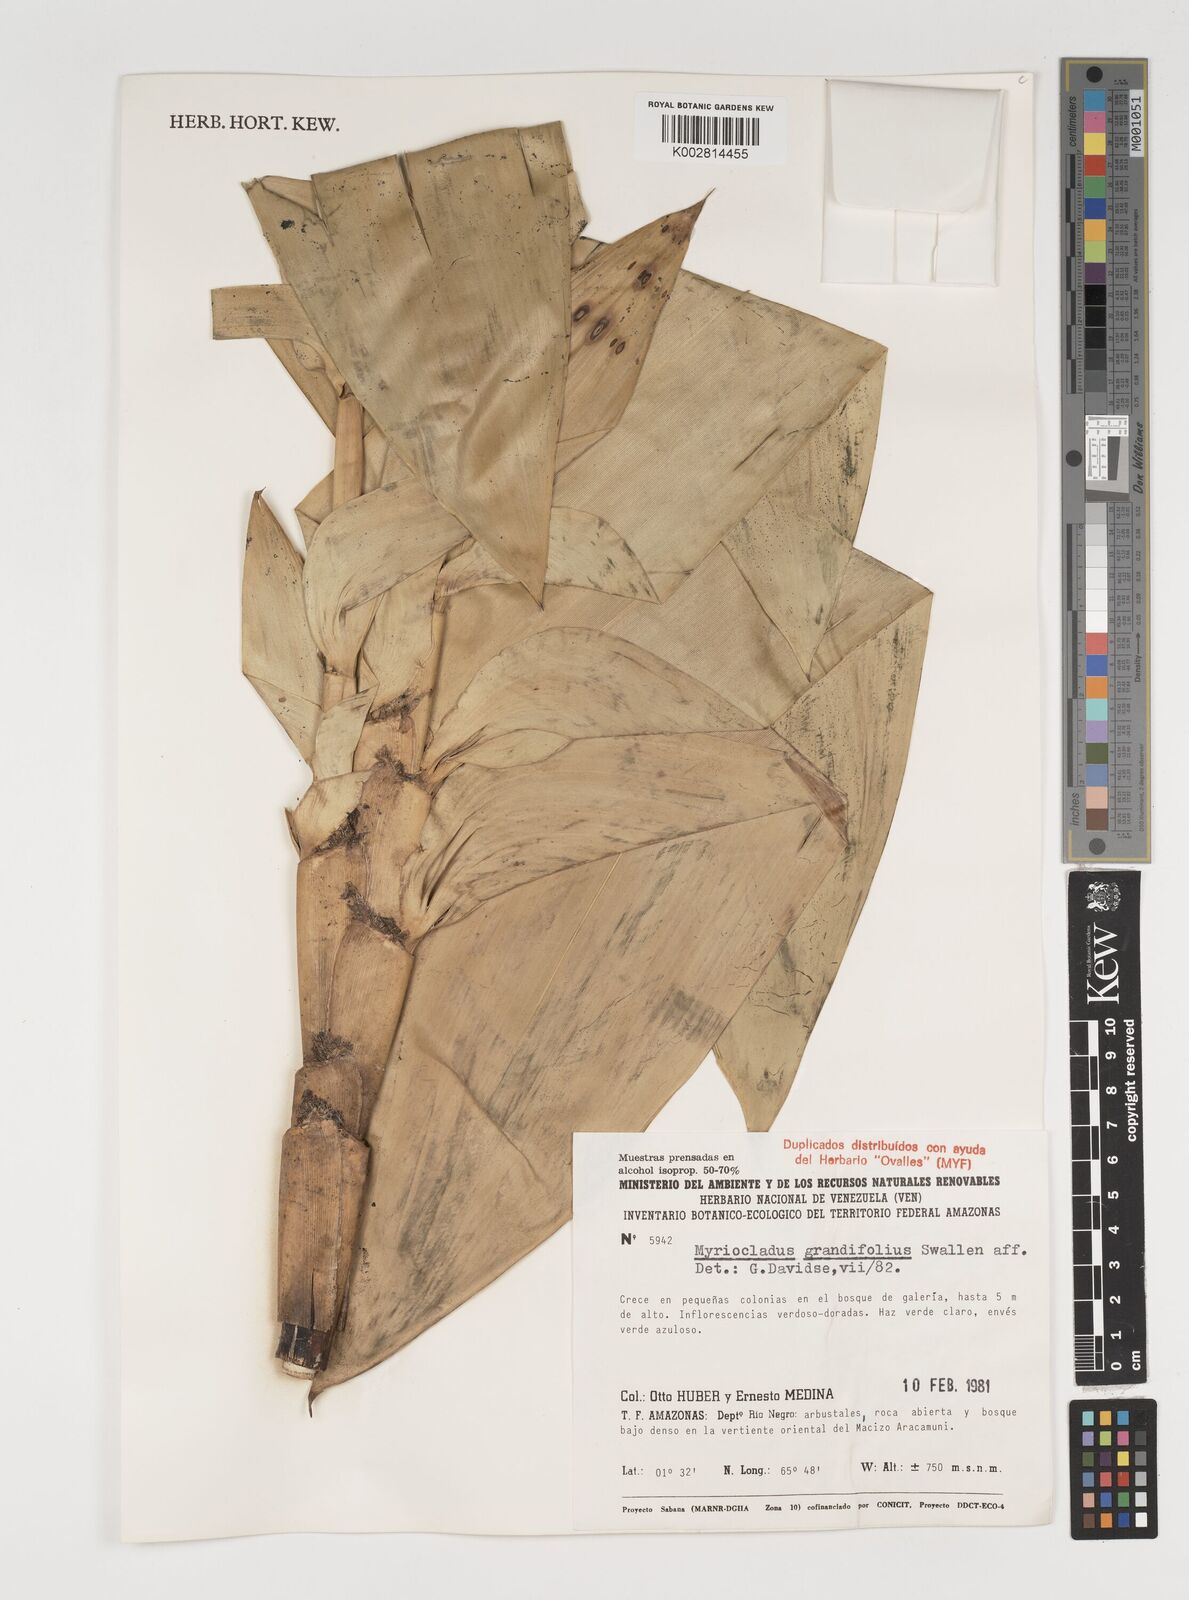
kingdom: Plantae
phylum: Tracheophyta
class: Liliopsida
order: Poales
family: Poaceae
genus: Myriocladus
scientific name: Myriocladus grandifolius
